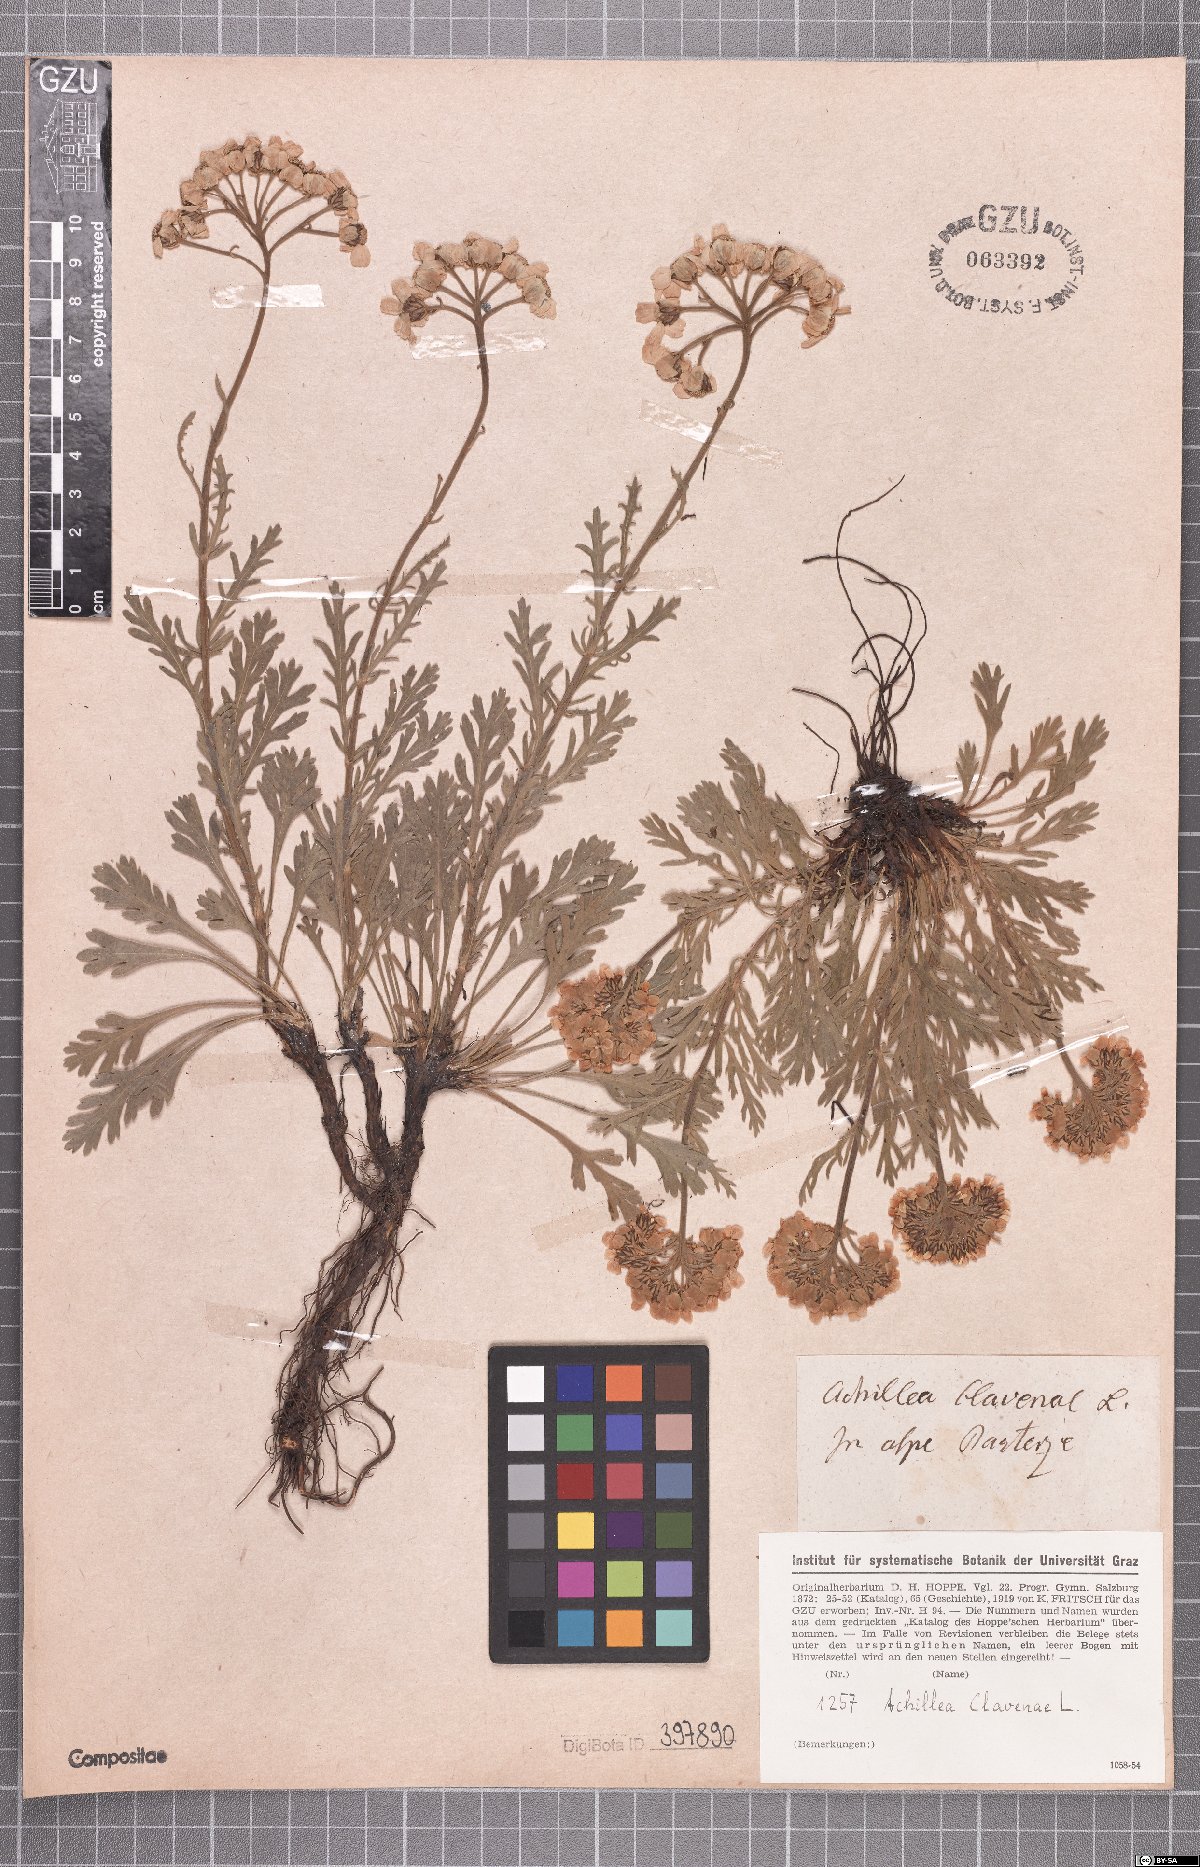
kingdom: Plantae
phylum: Tracheophyta
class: Magnoliopsida
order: Asterales
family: Asteraceae
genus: Achillea
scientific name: Achillea clavennae
